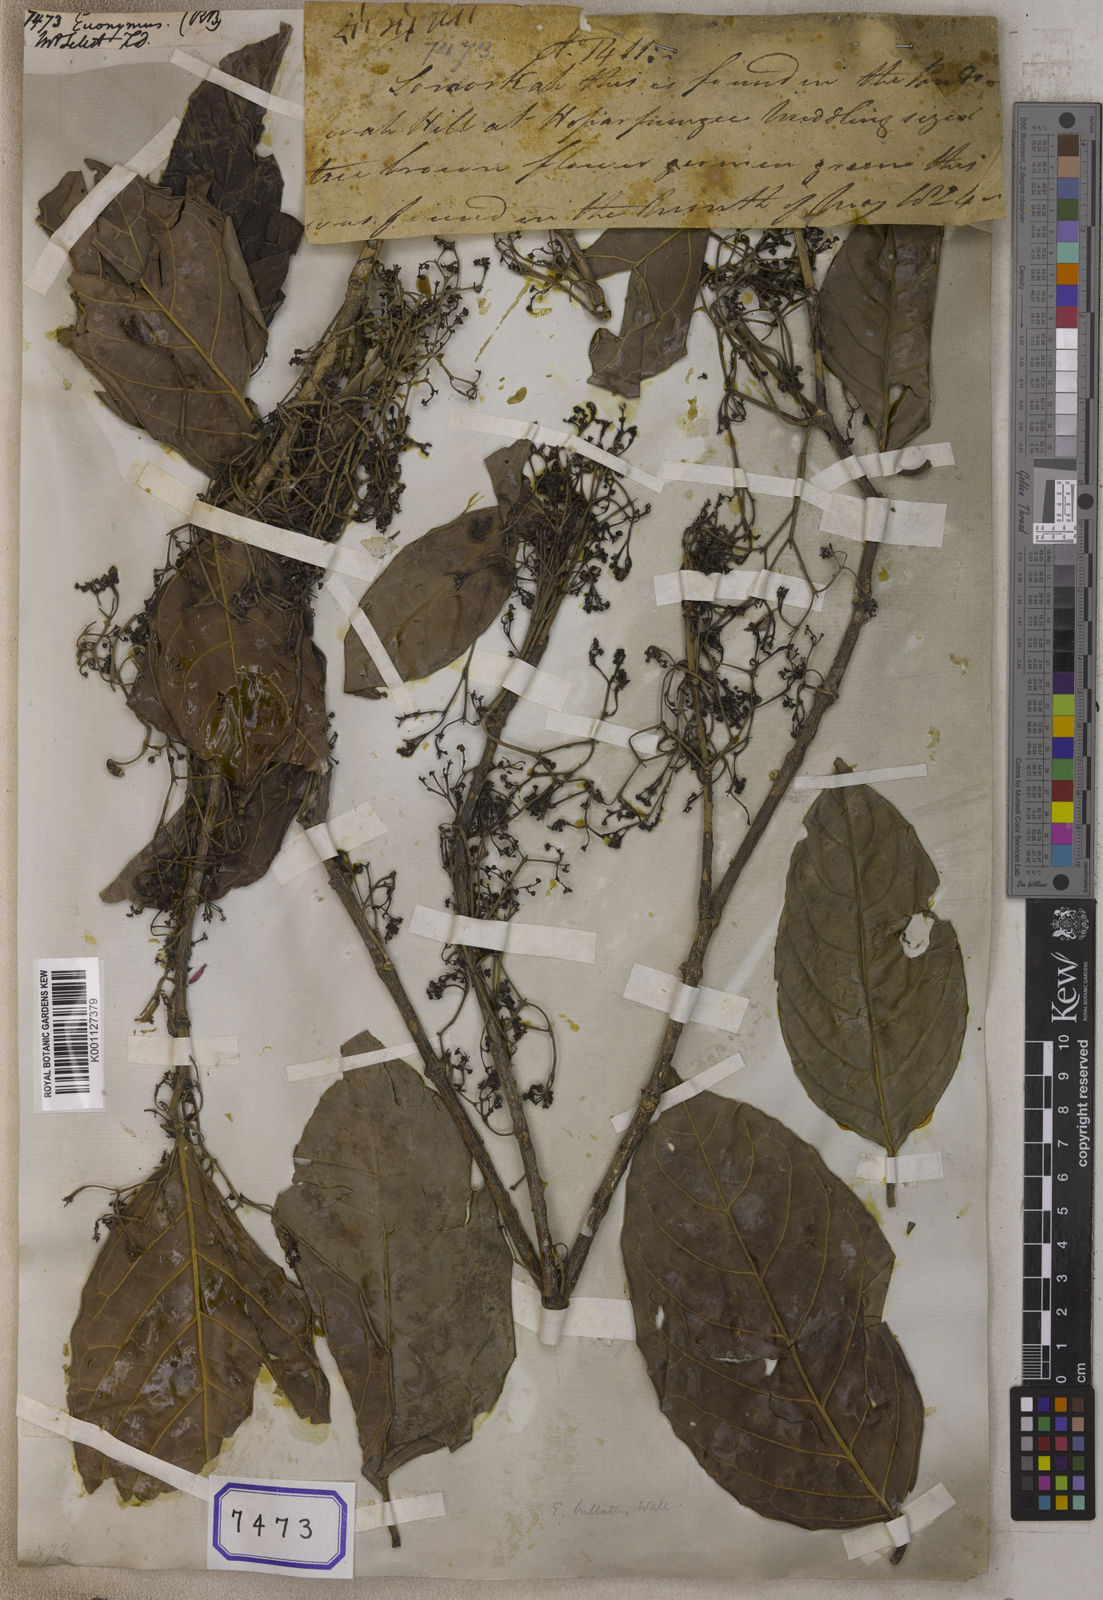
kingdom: Plantae
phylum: Tracheophyta
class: Magnoliopsida
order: Celastrales
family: Celastraceae
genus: Euonymus
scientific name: Euonymus
